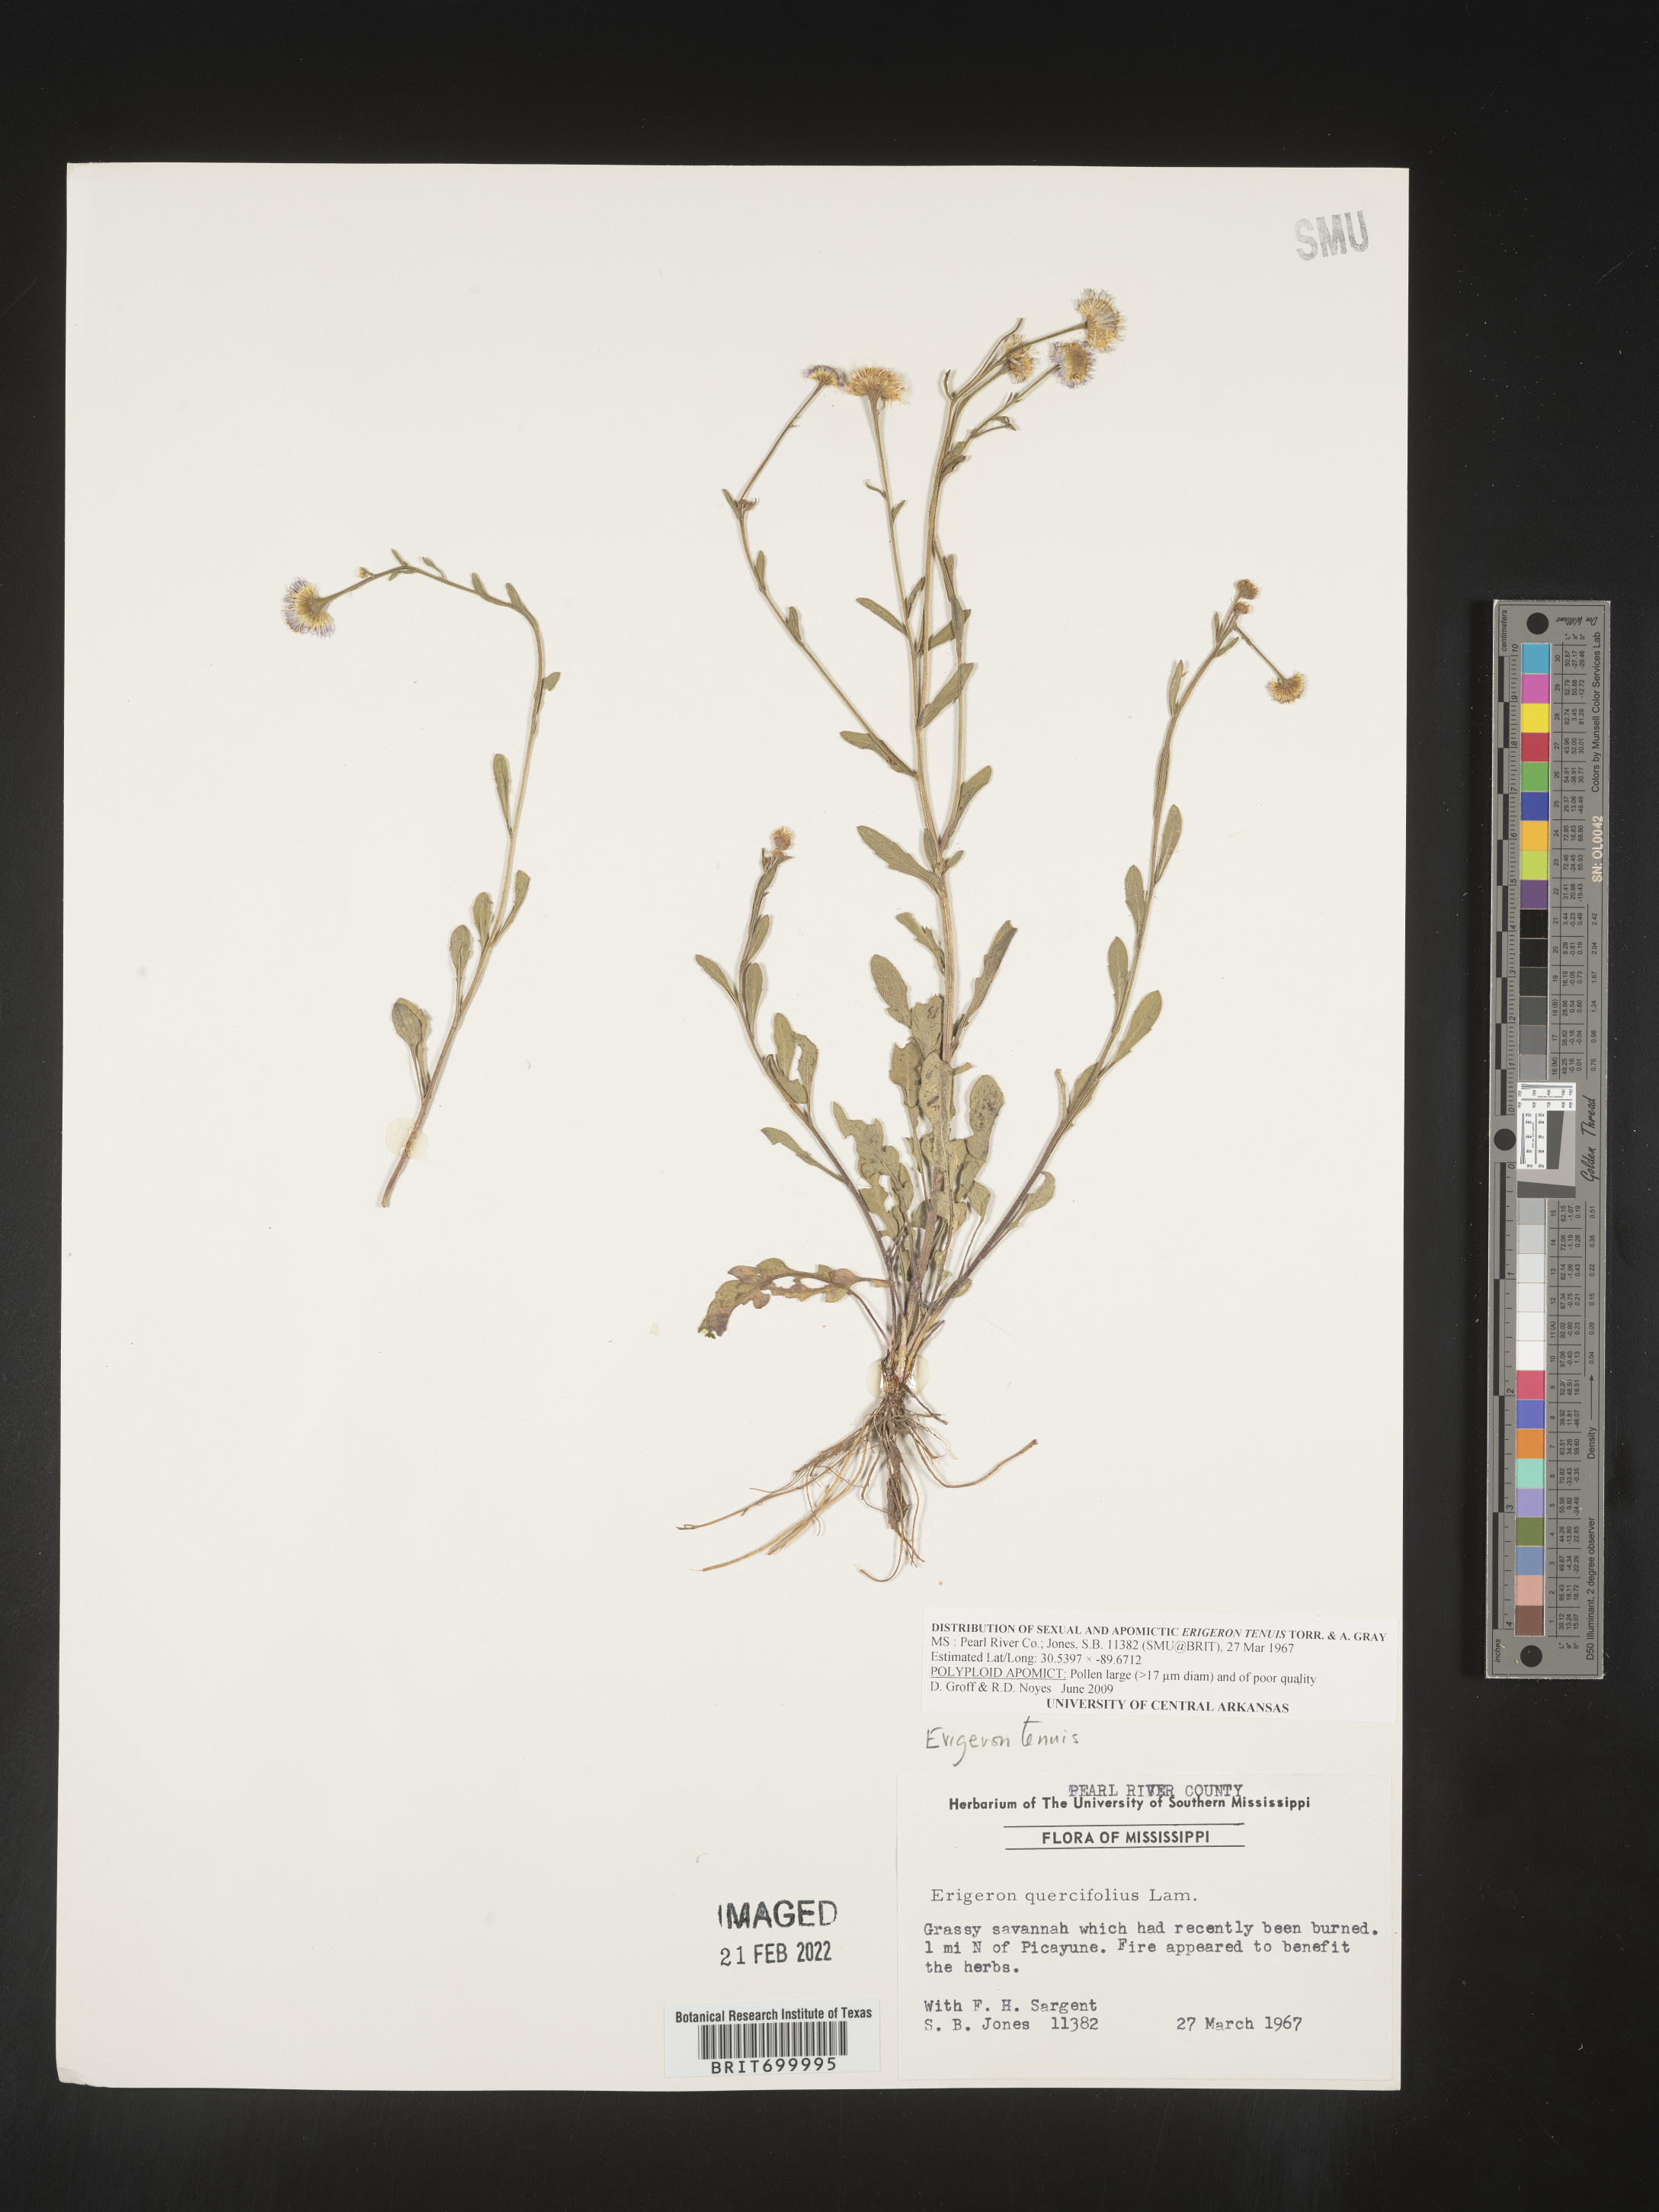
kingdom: Plantae
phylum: Tracheophyta
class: Magnoliopsida
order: Asterales
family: Asteraceae
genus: Erigeron
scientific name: Erigeron tenuis
